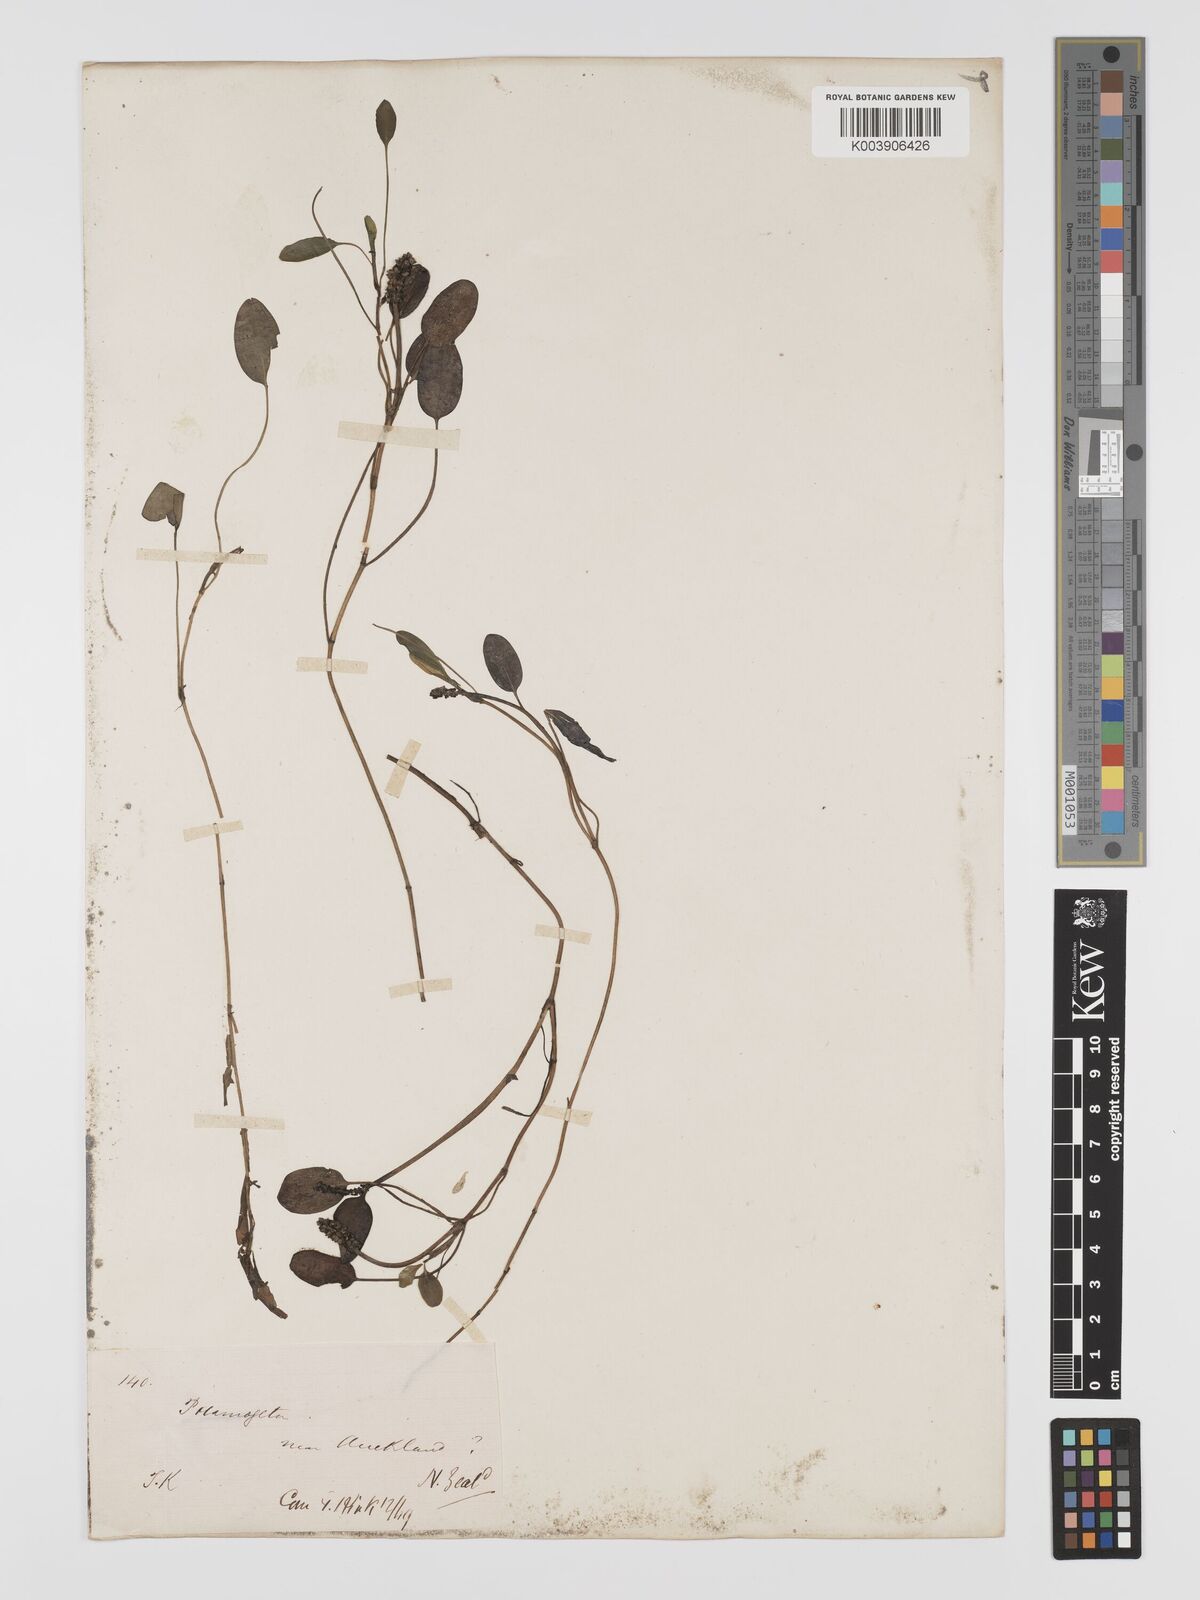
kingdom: Plantae
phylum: Tracheophyta
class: Liliopsida
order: Alismatales
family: Potamogetonaceae
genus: Potamogeton
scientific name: Potamogeton cheesemanii
